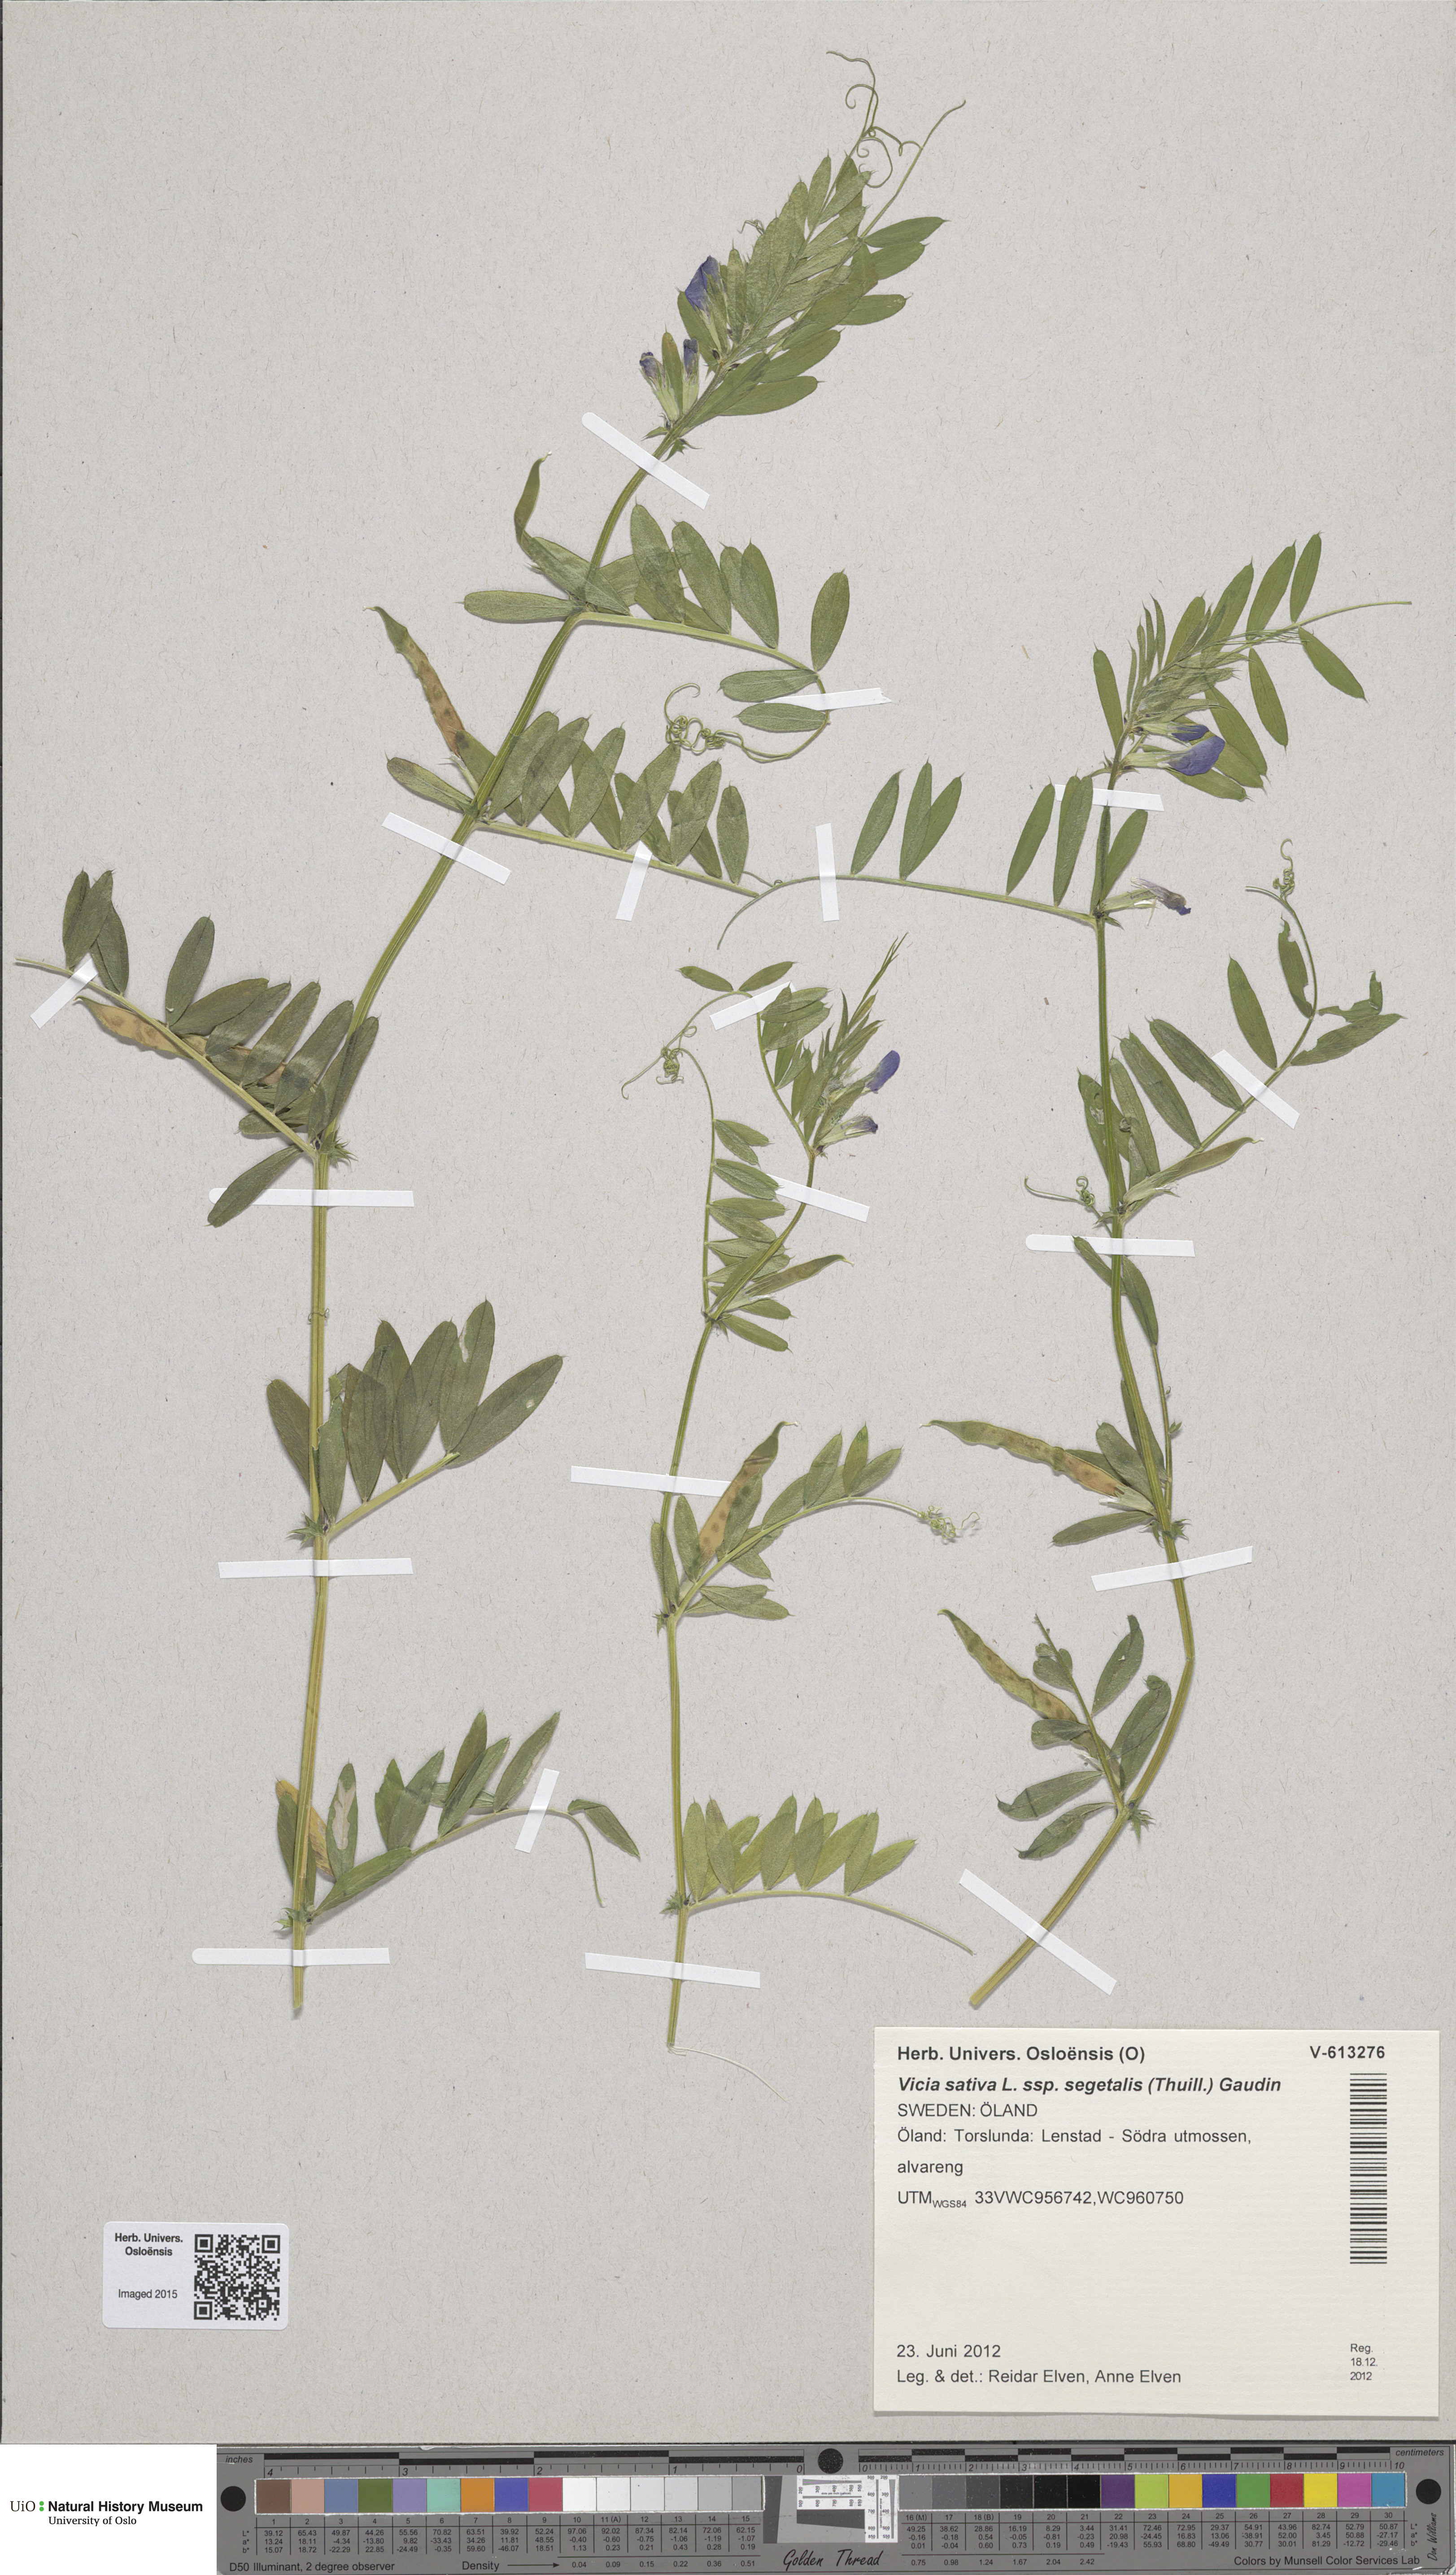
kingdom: Plantae
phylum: Tracheophyta
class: Magnoliopsida
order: Fabales
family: Fabaceae
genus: Vicia
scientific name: Vicia sativa
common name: Garden vetch
